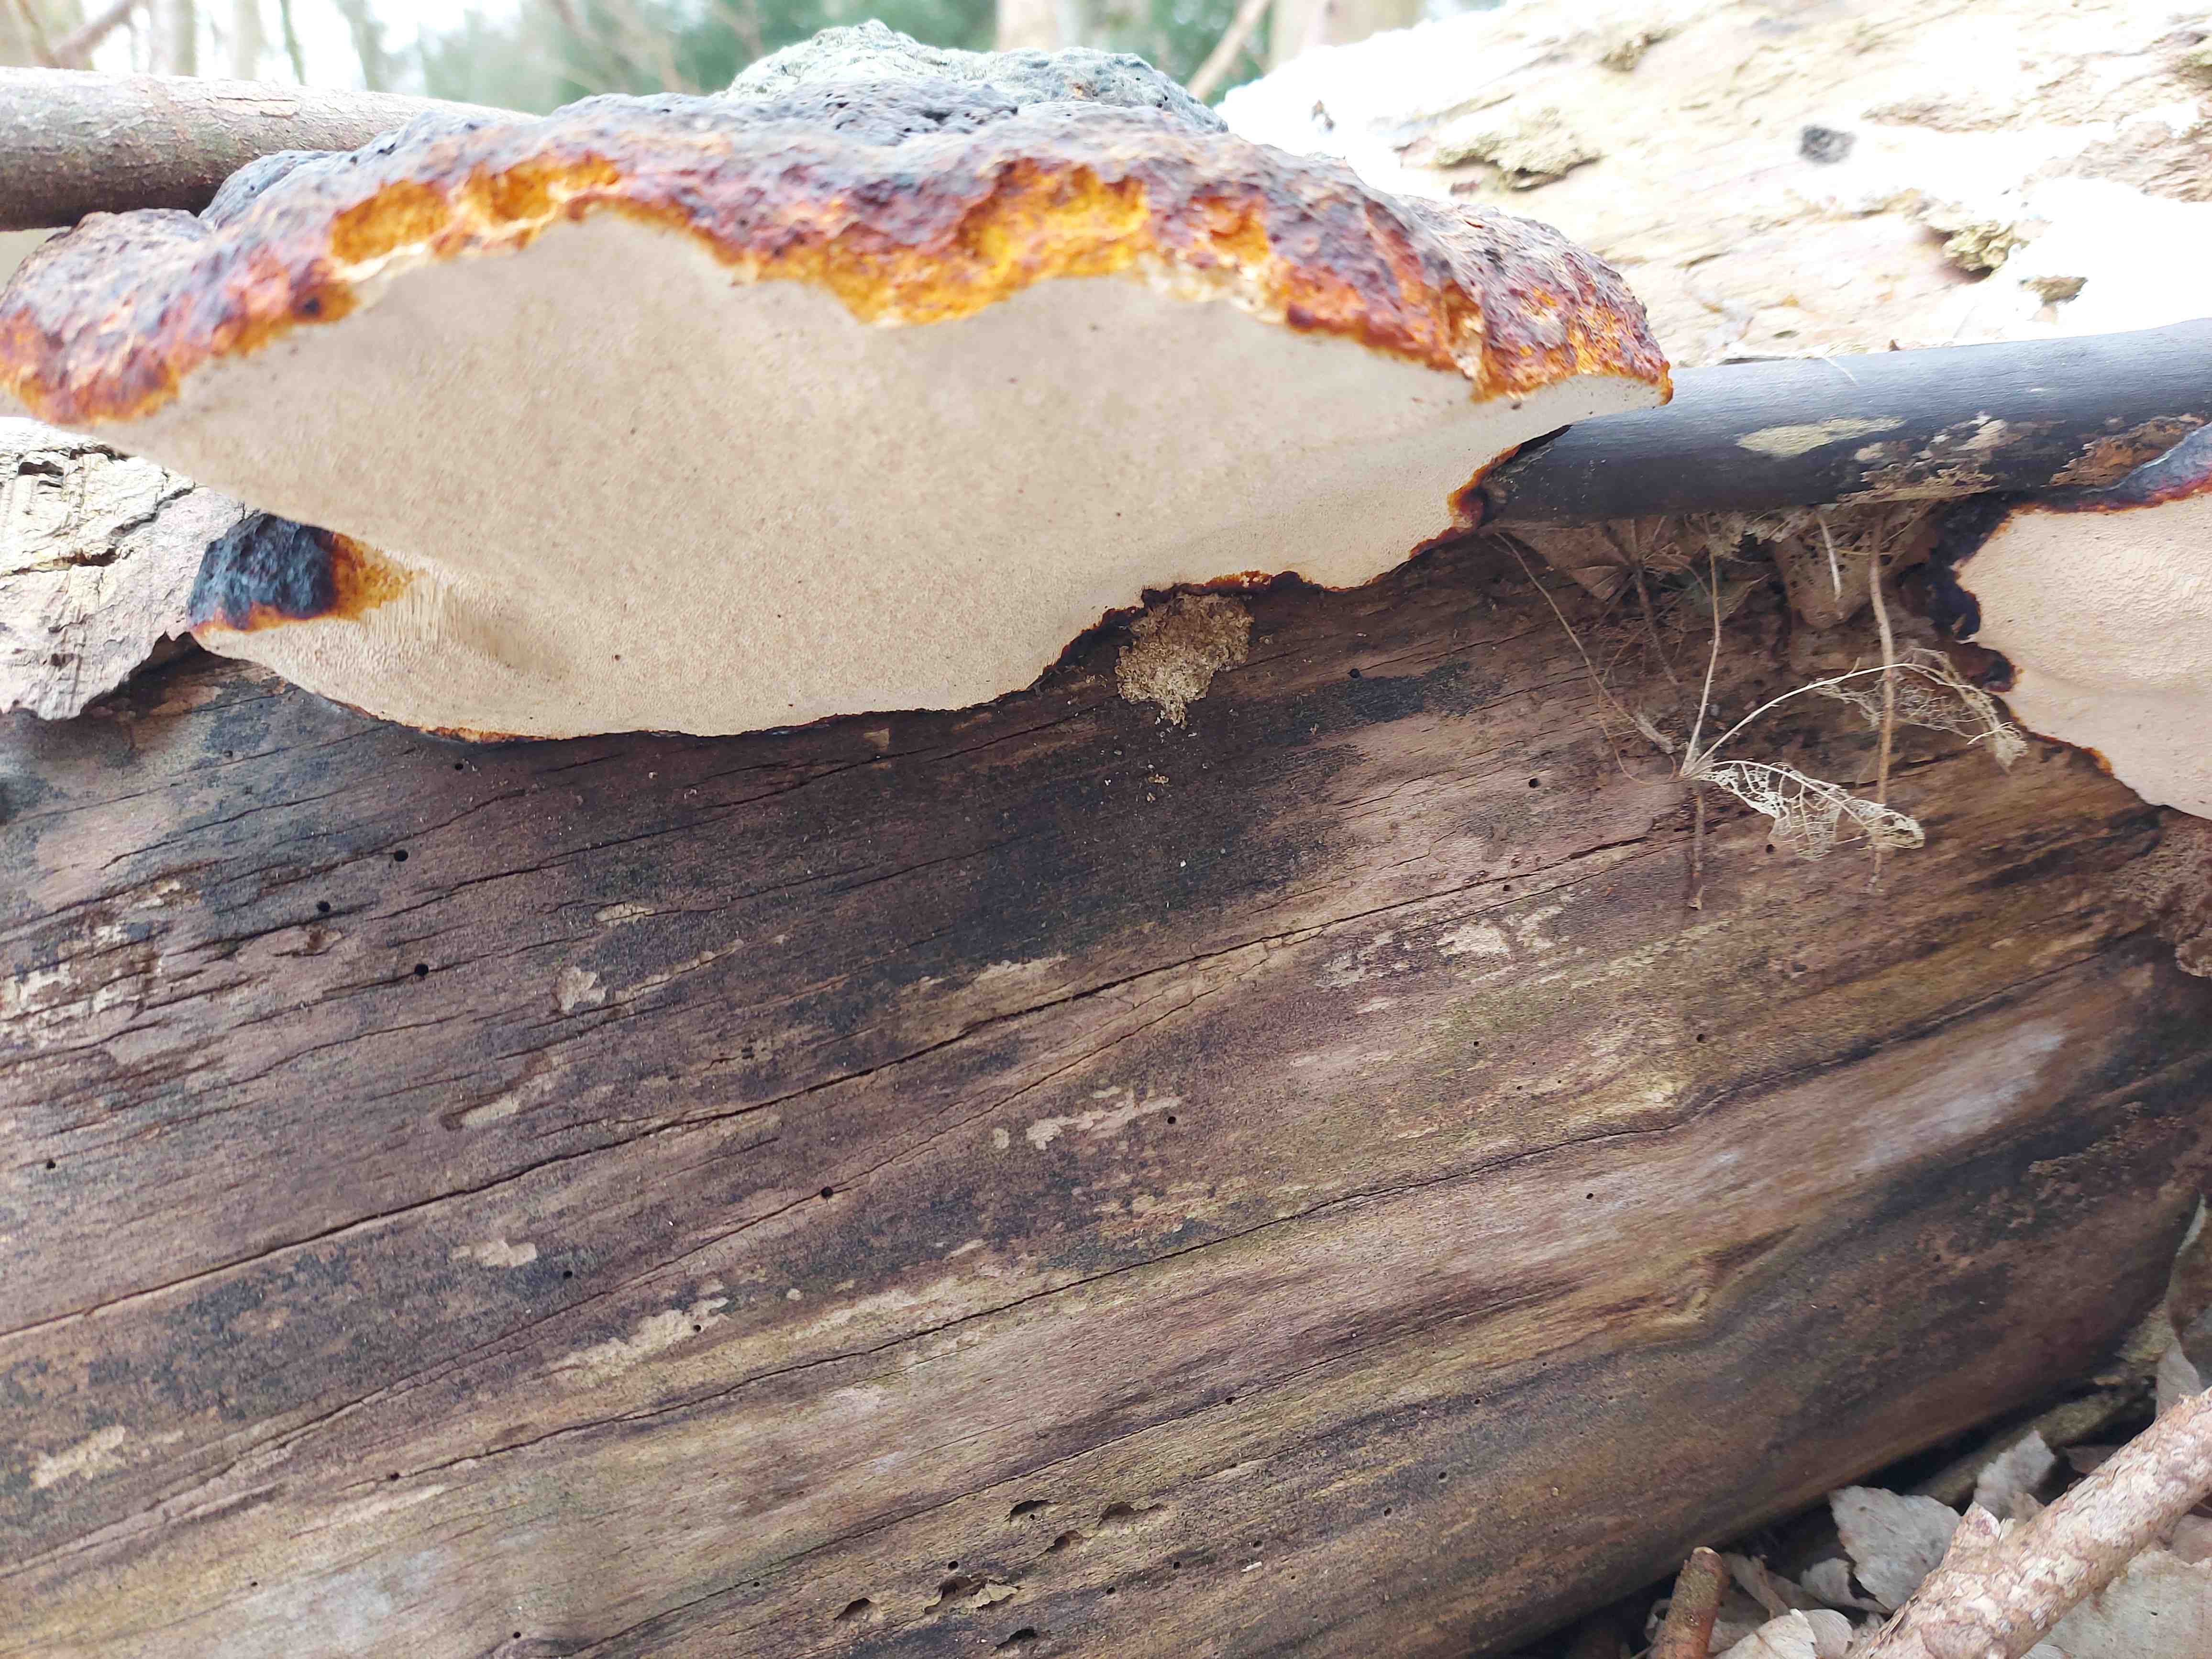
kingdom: Fungi
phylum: Basidiomycota
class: Agaricomycetes
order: Polyporales
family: Fomitopsidaceae
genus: Fomitopsis
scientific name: Fomitopsis pinicola
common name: randbæltet hovporesvamp
